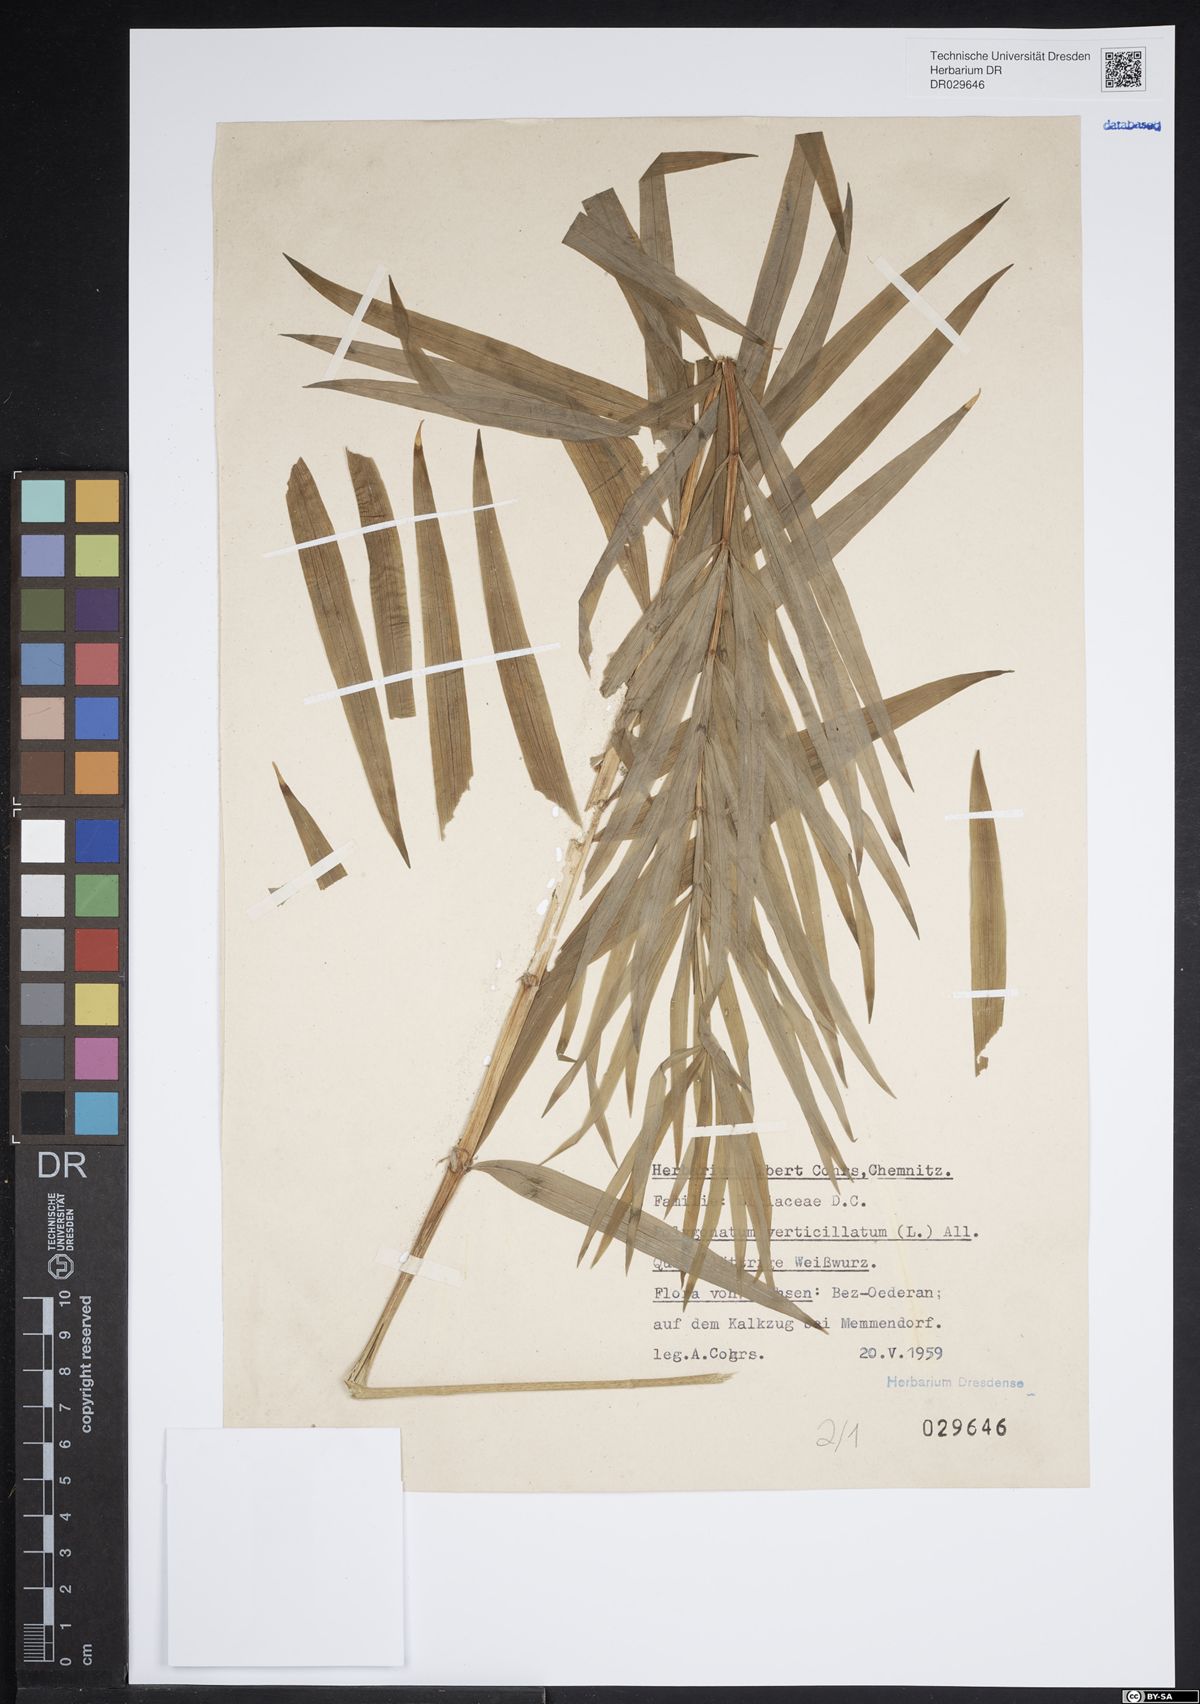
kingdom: Plantae
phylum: Tracheophyta
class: Liliopsida
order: Asparagales
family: Asparagaceae
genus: Polygonatum
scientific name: Polygonatum verticillatum
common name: Whorled solomon's-seal
